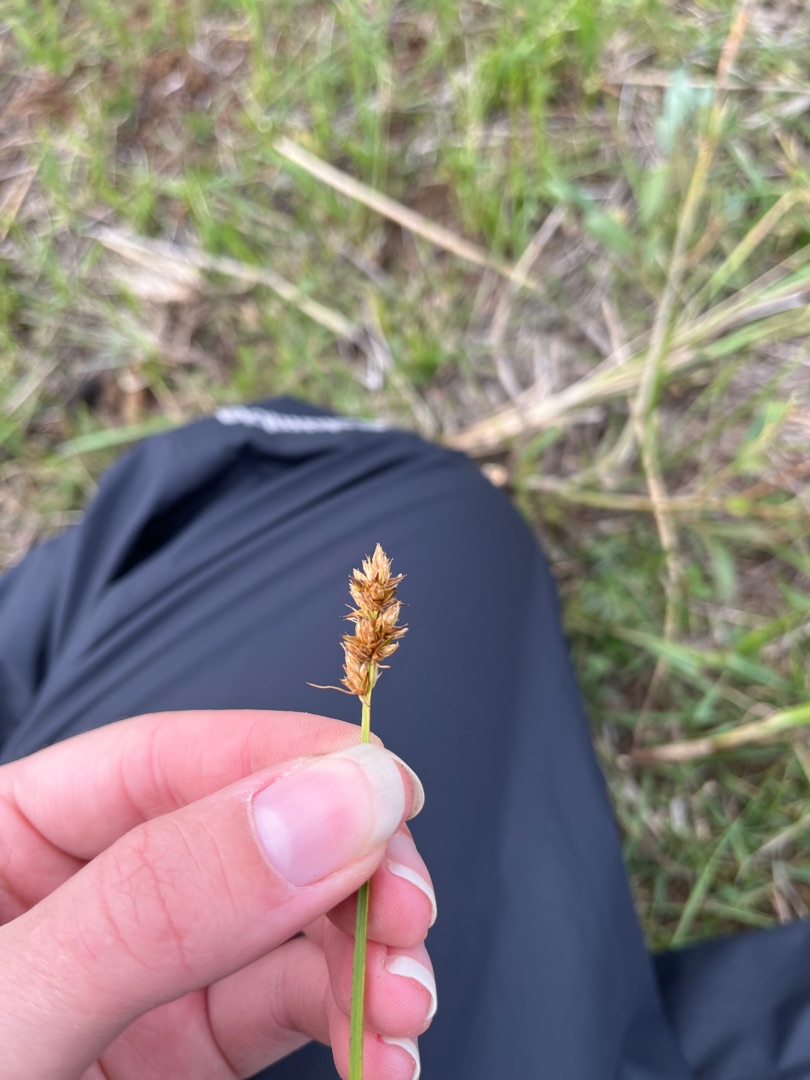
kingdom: Plantae
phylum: Tracheophyta
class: Liliopsida
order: Poales
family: Cyperaceae
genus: Carex
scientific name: Carex otrubae
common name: Sylt-star
